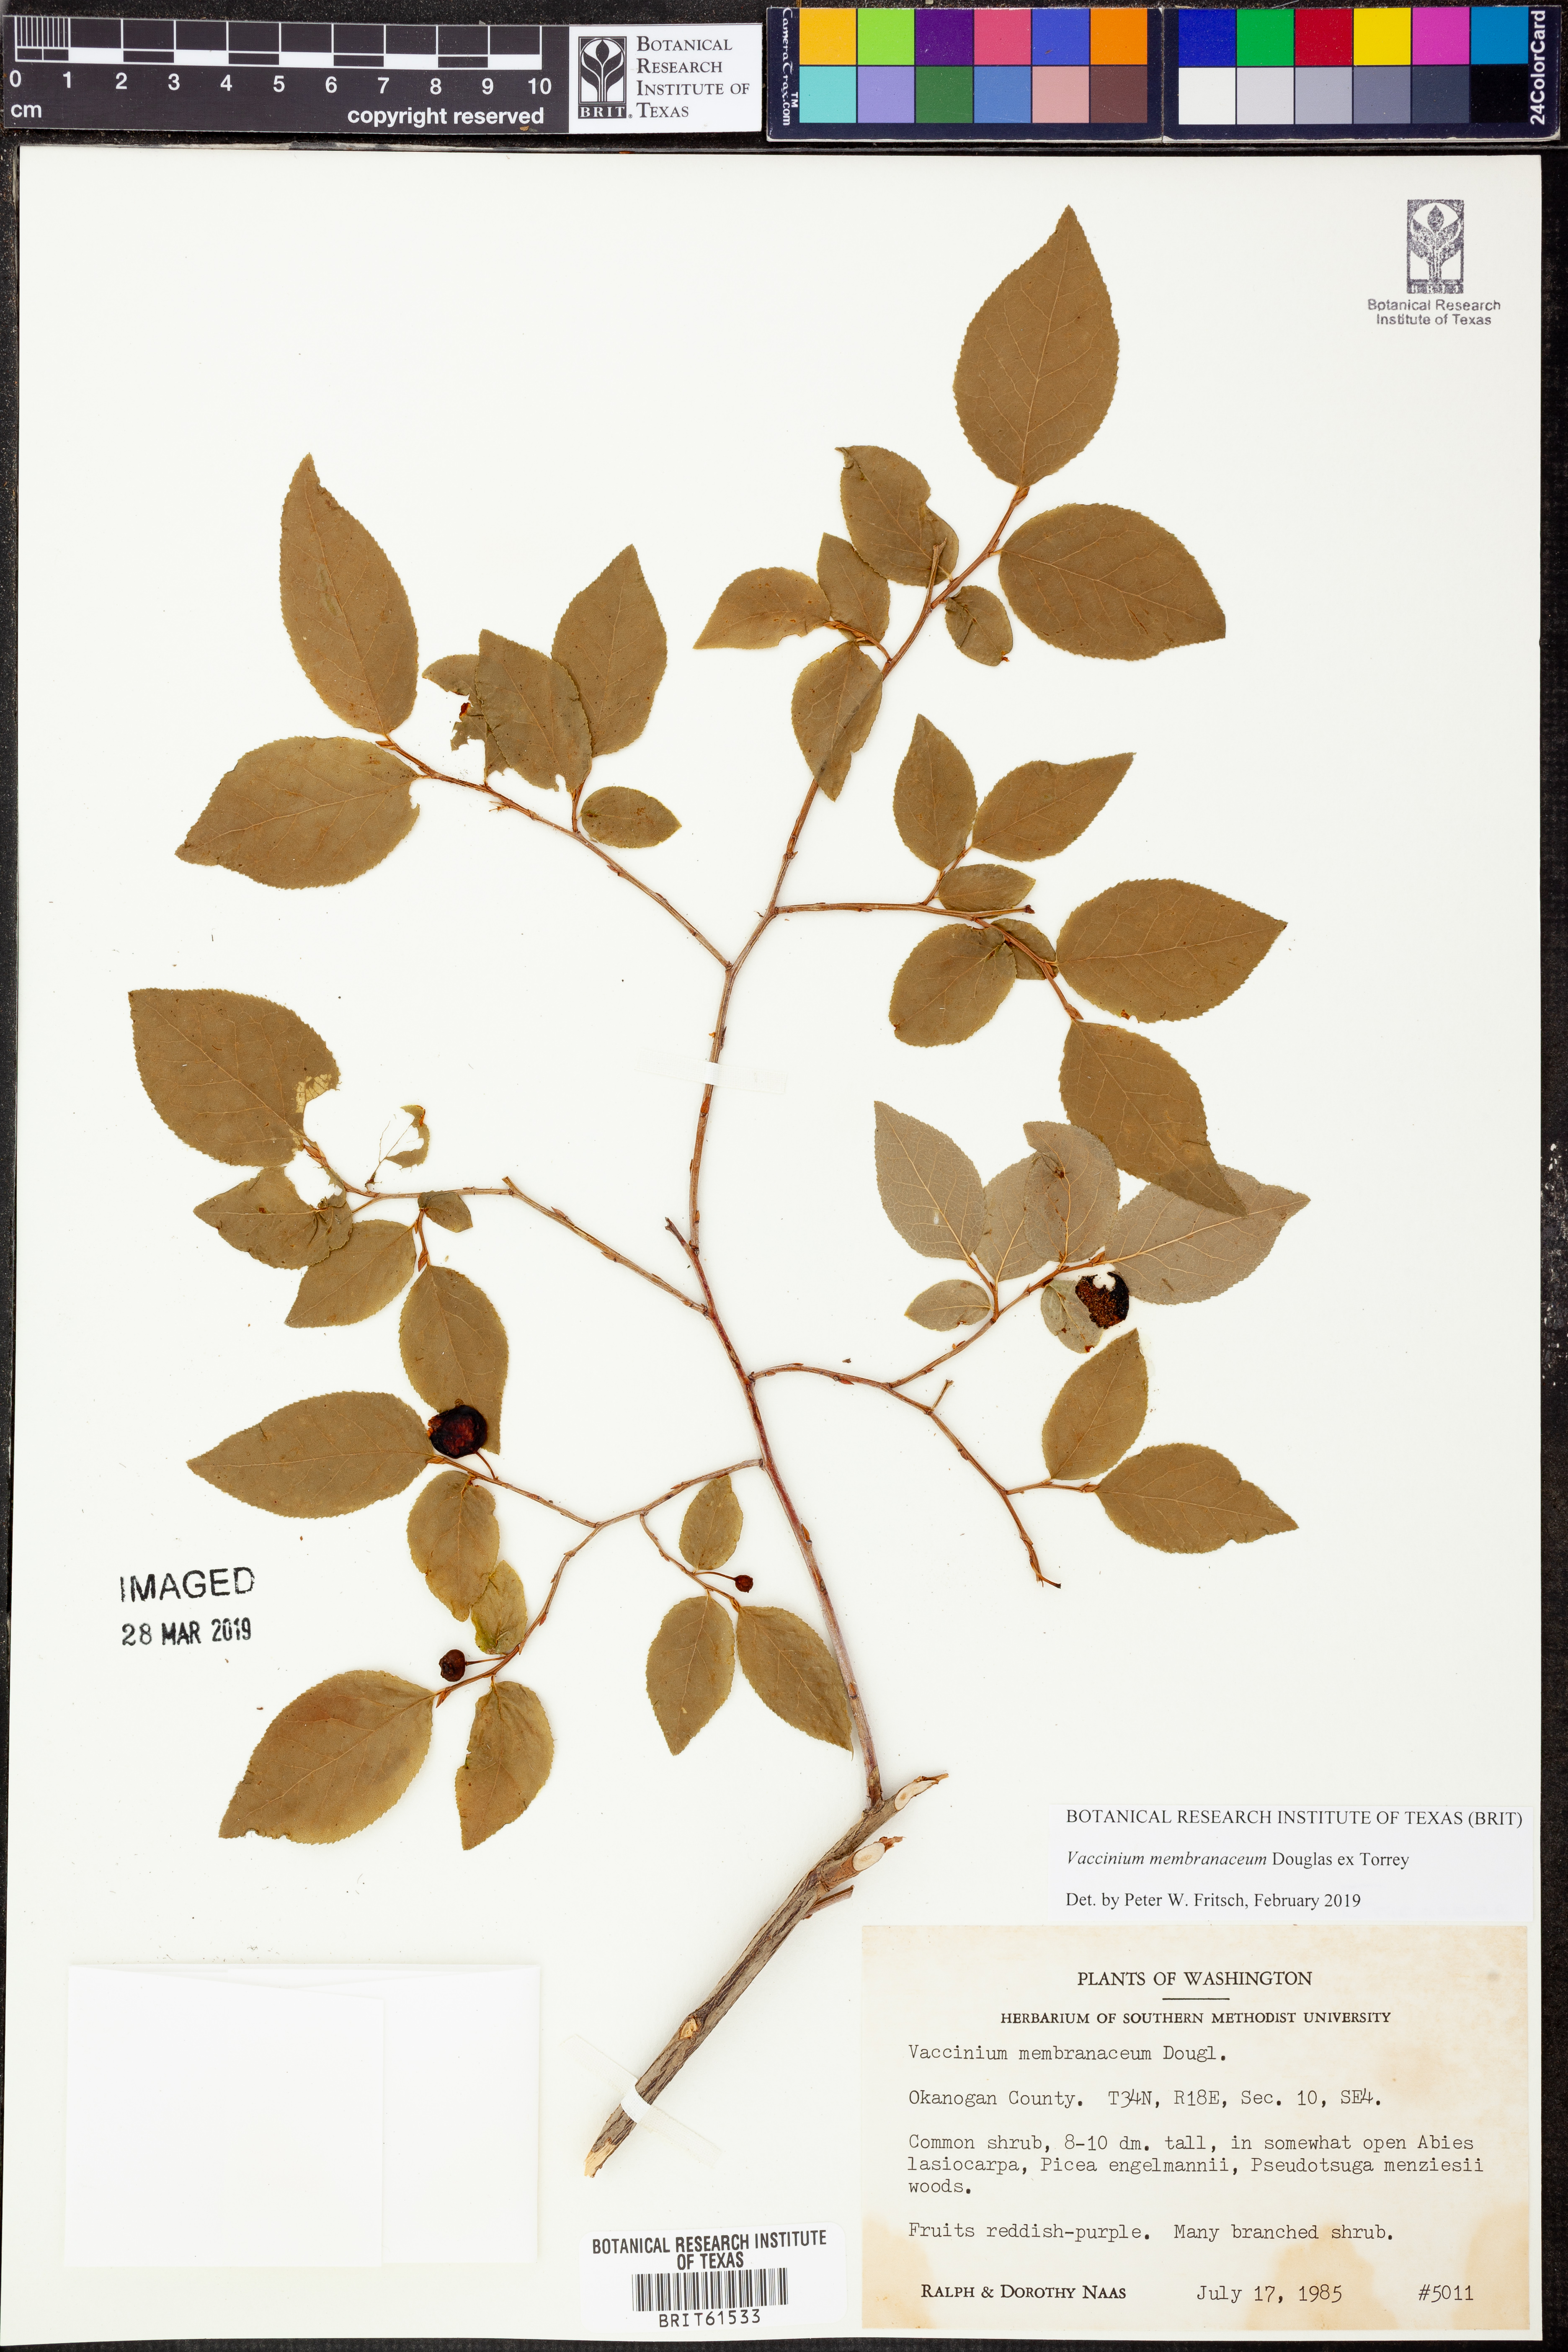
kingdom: Plantae
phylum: Tracheophyta
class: Magnoliopsida
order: Ericales
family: Ericaceae
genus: Vaccinium
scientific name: Vaccinium membranaceum
